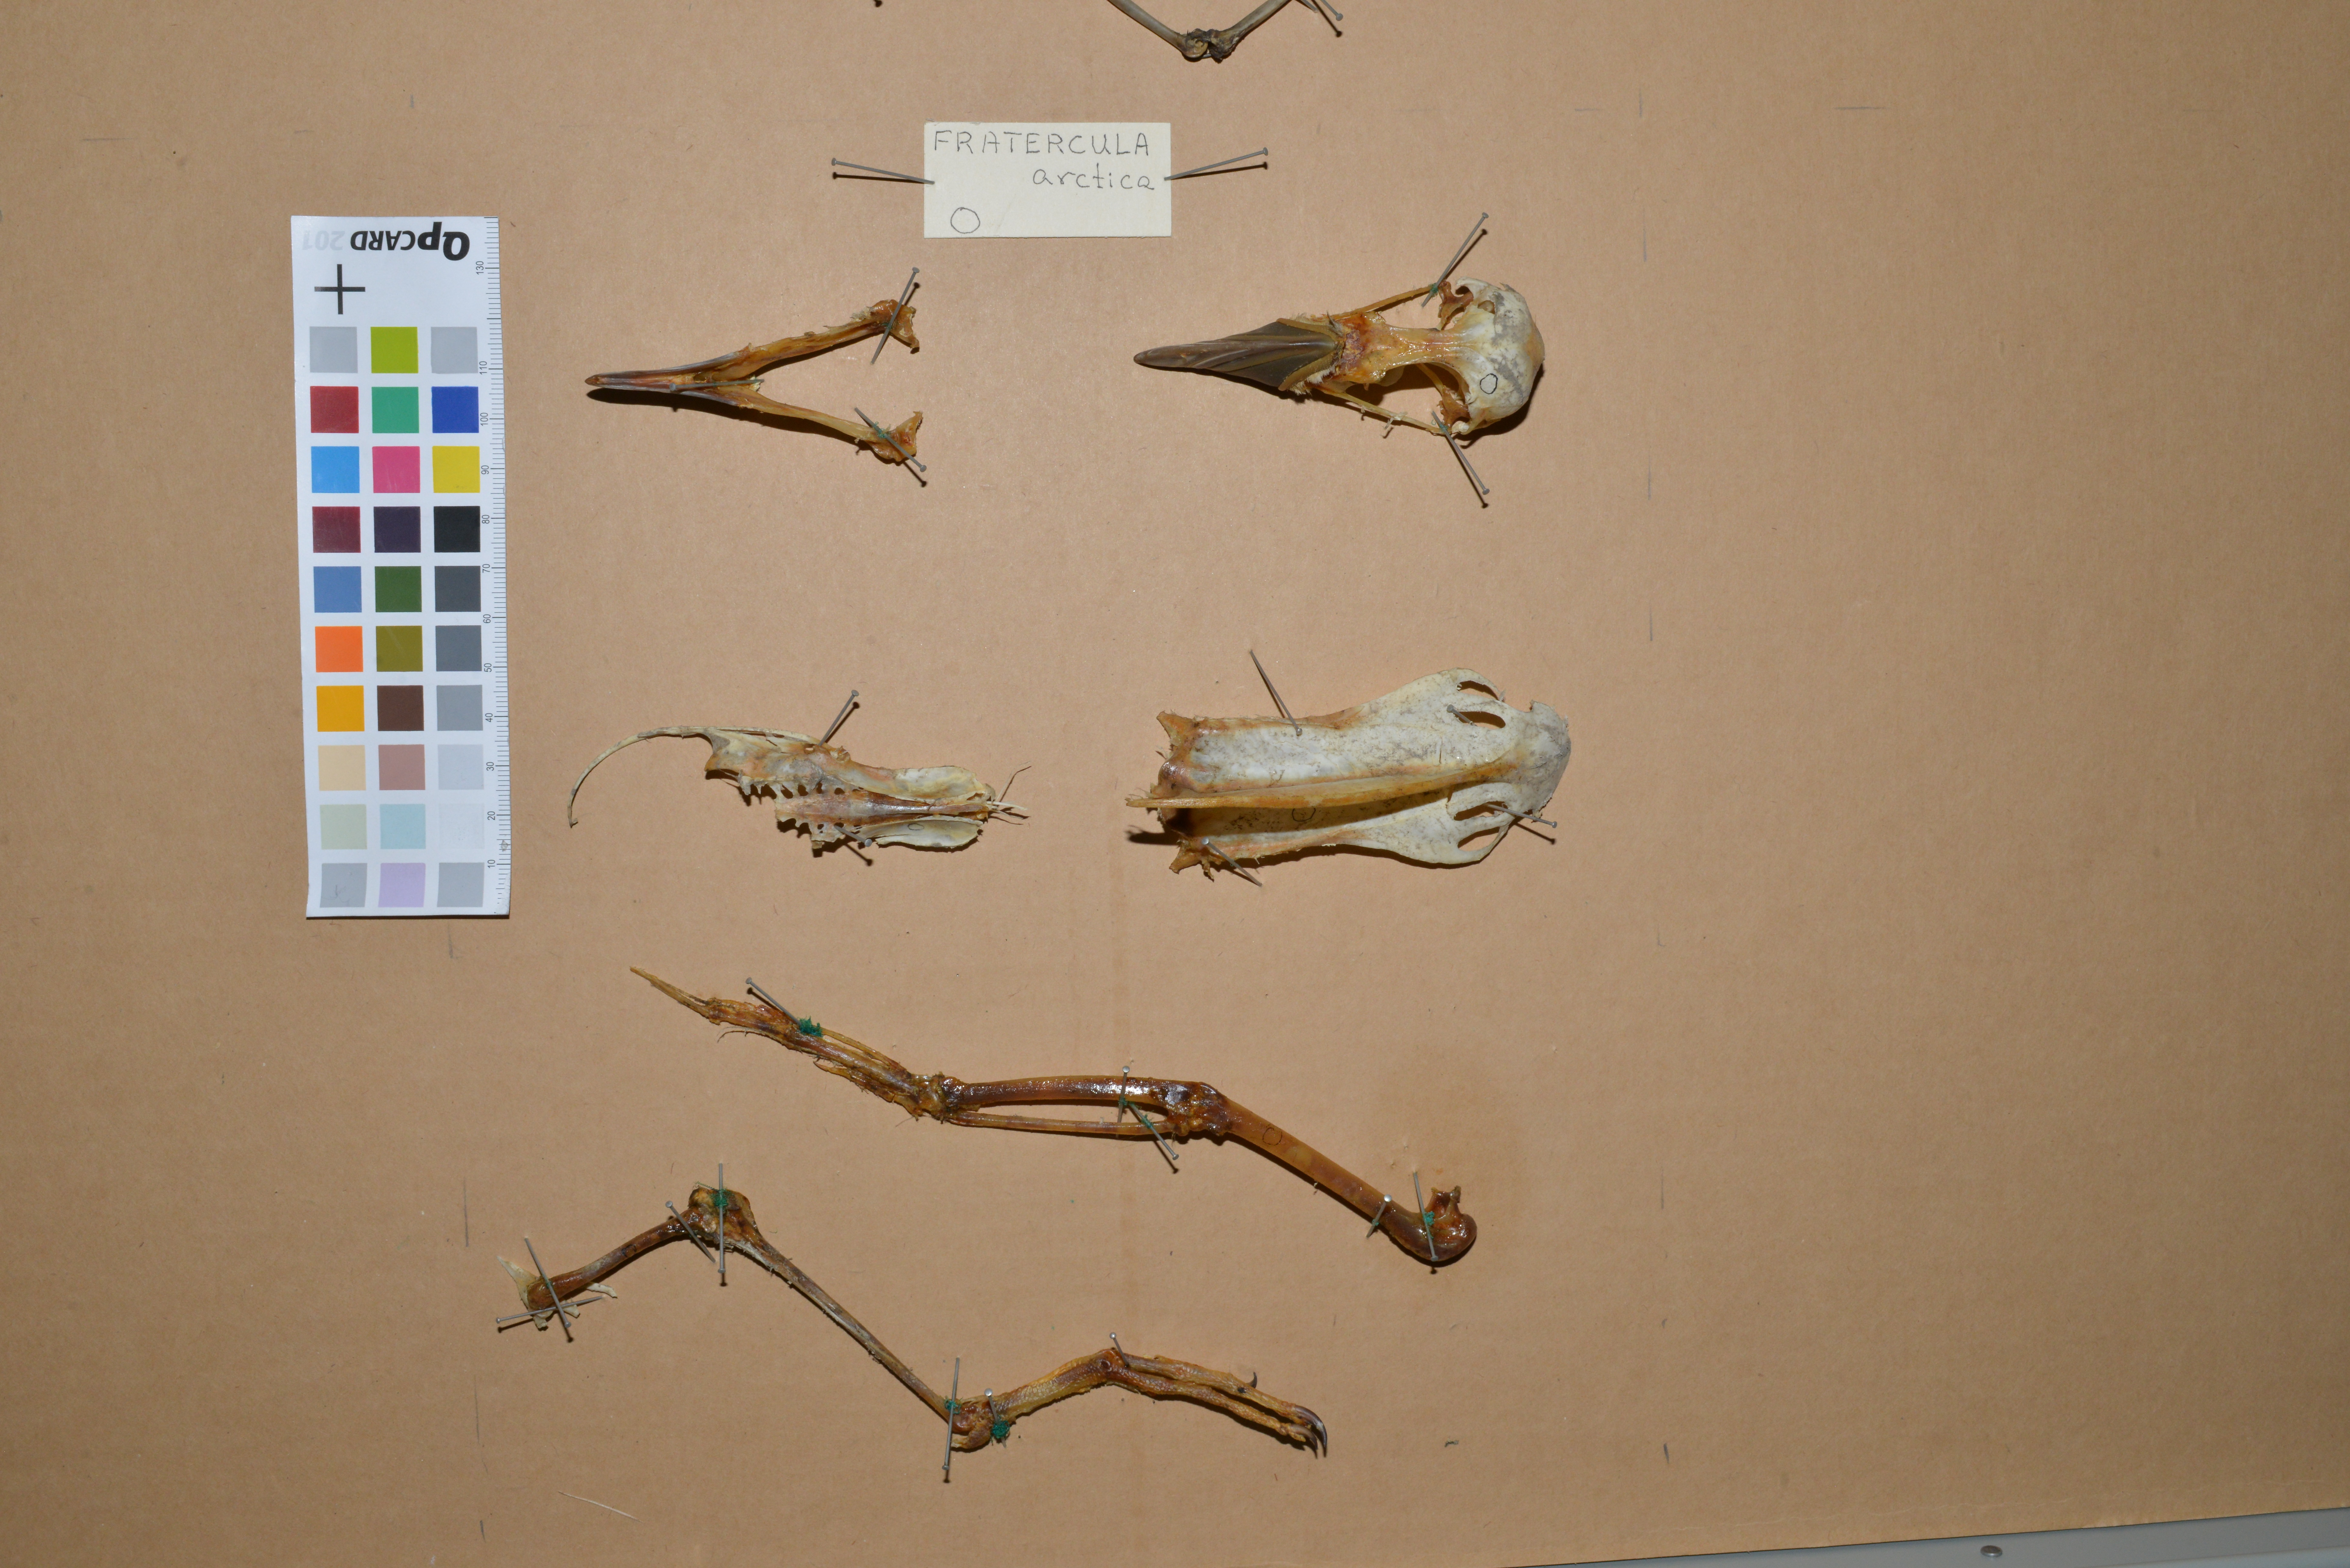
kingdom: Animalia
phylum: Chordata
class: Aves
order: Charadriiformes
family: Alcidae
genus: Fratercula
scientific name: Fratercula arctica
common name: Atlantic puffin
